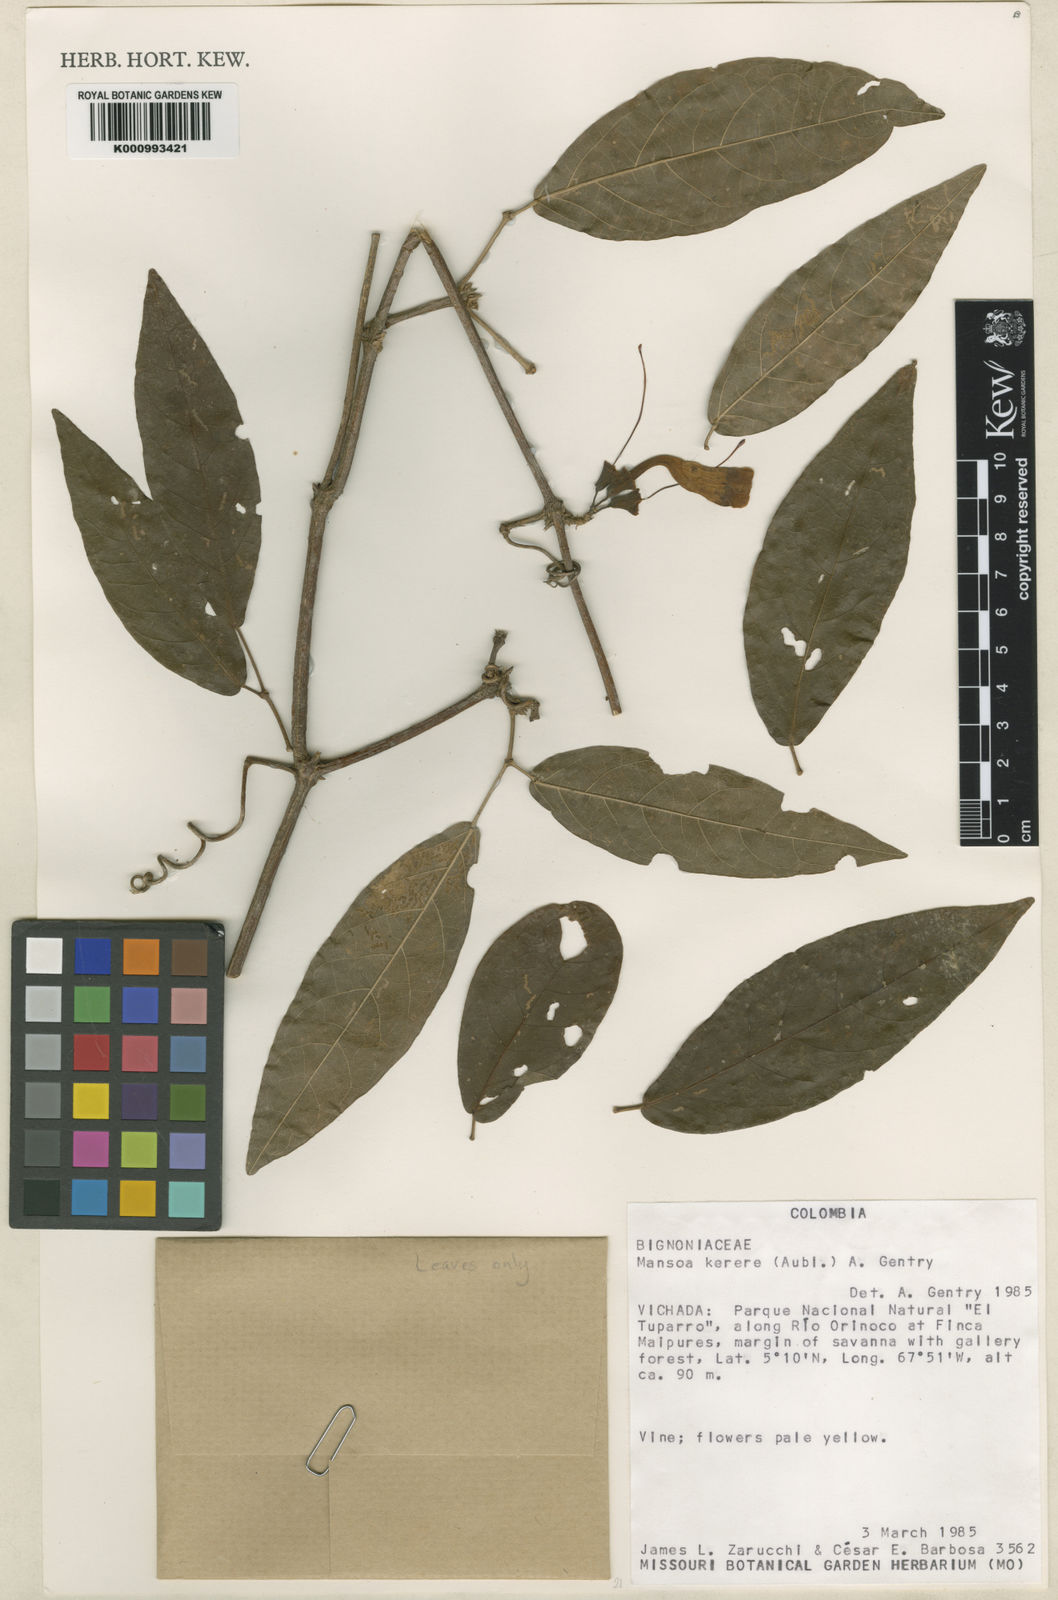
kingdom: Plantae
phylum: Tracheophyta
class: Magnoliopsida
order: Lamiales
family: Bignoniaceae
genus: Pachyptera
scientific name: Pachyptera kerere
